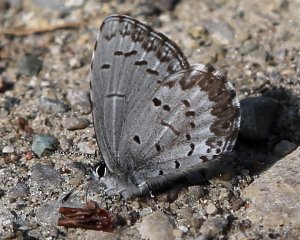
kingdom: Animalia
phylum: Arthropoda
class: Insecta
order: Lepidoptera
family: Lycaenidae
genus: Celastrina
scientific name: Celastrina lucia
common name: Northern Spring Azure
